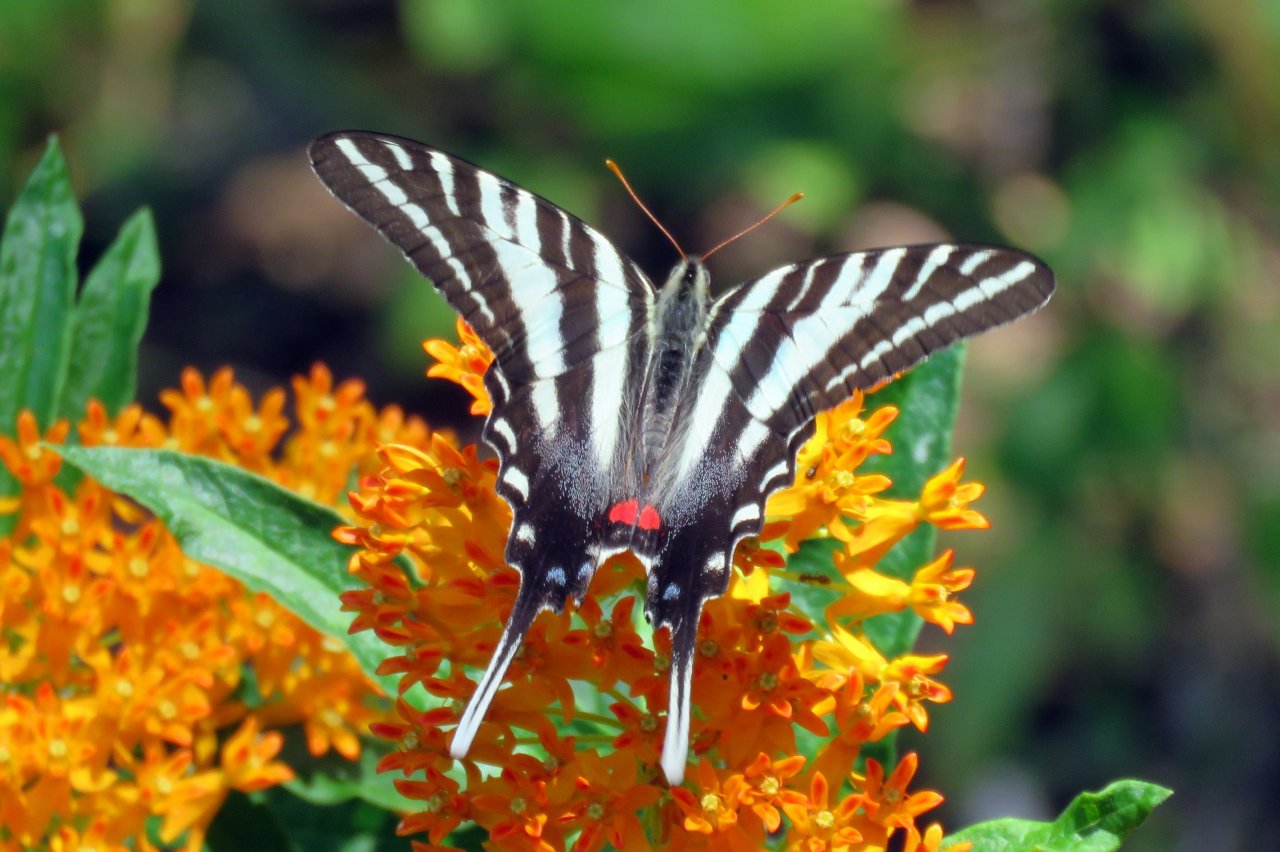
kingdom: Animalia
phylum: Arthropoda
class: Insecta
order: Lepidoptera
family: Papilionidae
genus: Protographium
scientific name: Protographium marcellus
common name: Zebra Swallowtail
